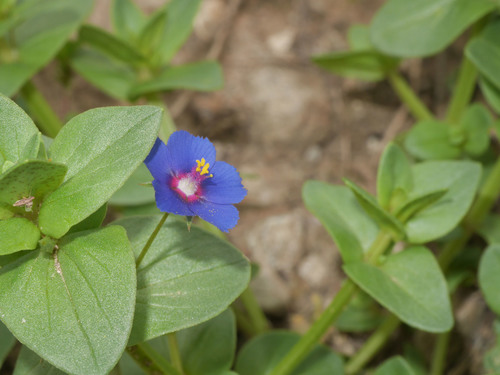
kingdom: Plantae
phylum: Tracheophyta
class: Magnoliopsida
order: Ericales
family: Primulaceae
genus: Lysimachia
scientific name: Lysimachia arvensis
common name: Scarlet pimpernel
